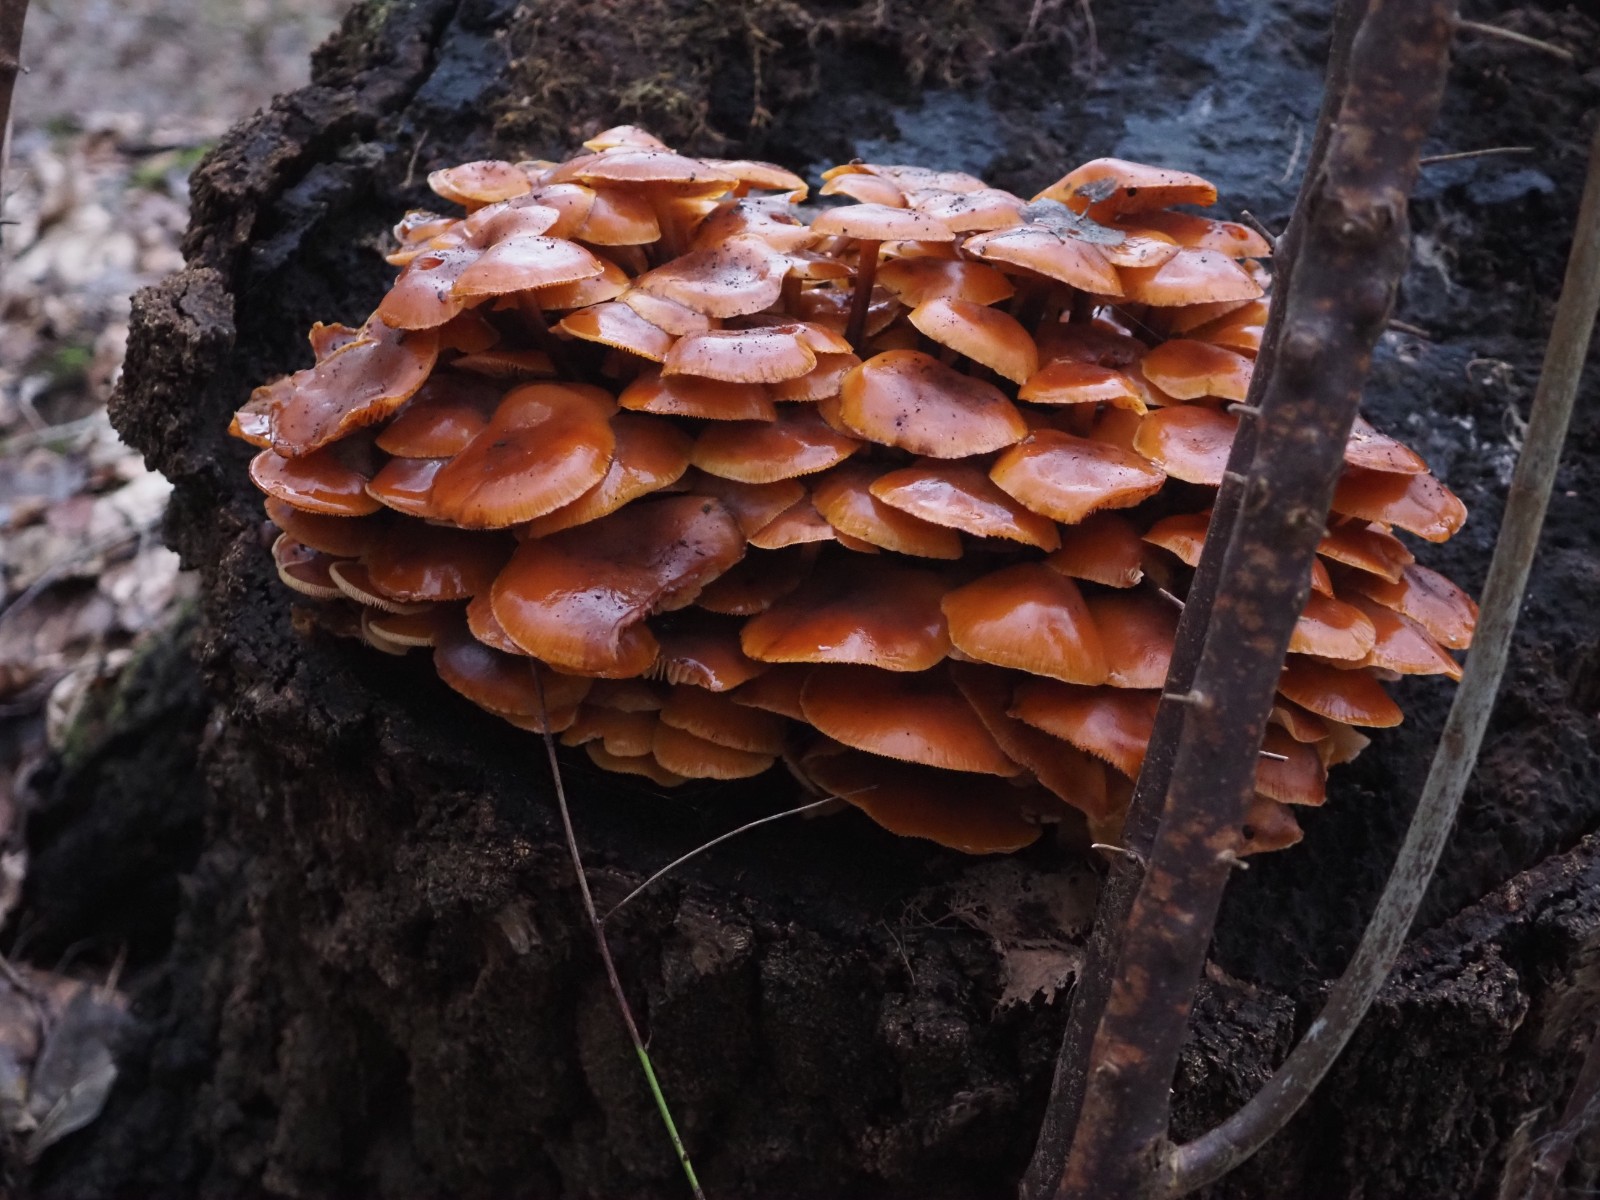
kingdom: Fungi
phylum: Basidiomycota
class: Agaricomycetes
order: Agaricales
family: Physalacriaceae
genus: Flammulina
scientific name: Flammulina velutipes
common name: gul fløjlsfod
